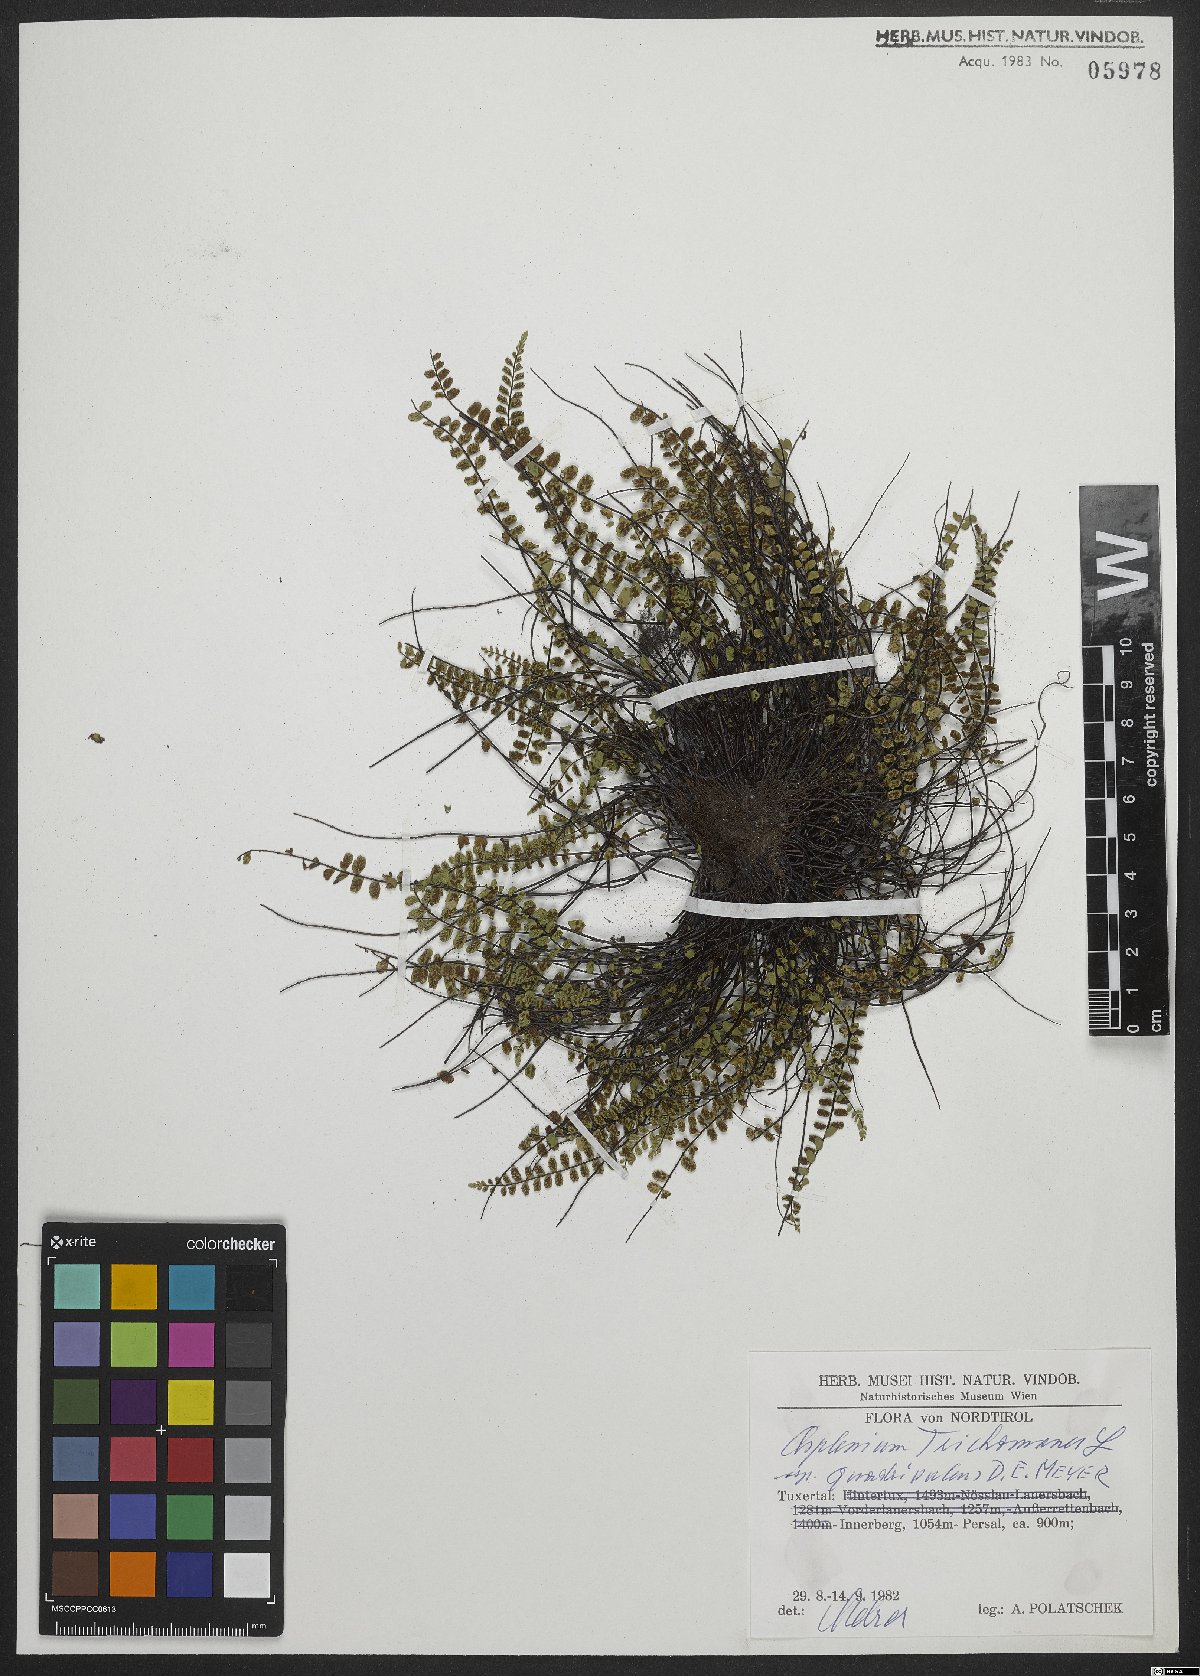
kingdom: Plantae
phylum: Tracheophyta
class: Polypodiopsida
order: Polypodiales
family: Aspleniaceae
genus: Asplenium
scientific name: Asplenium quadrivalens
